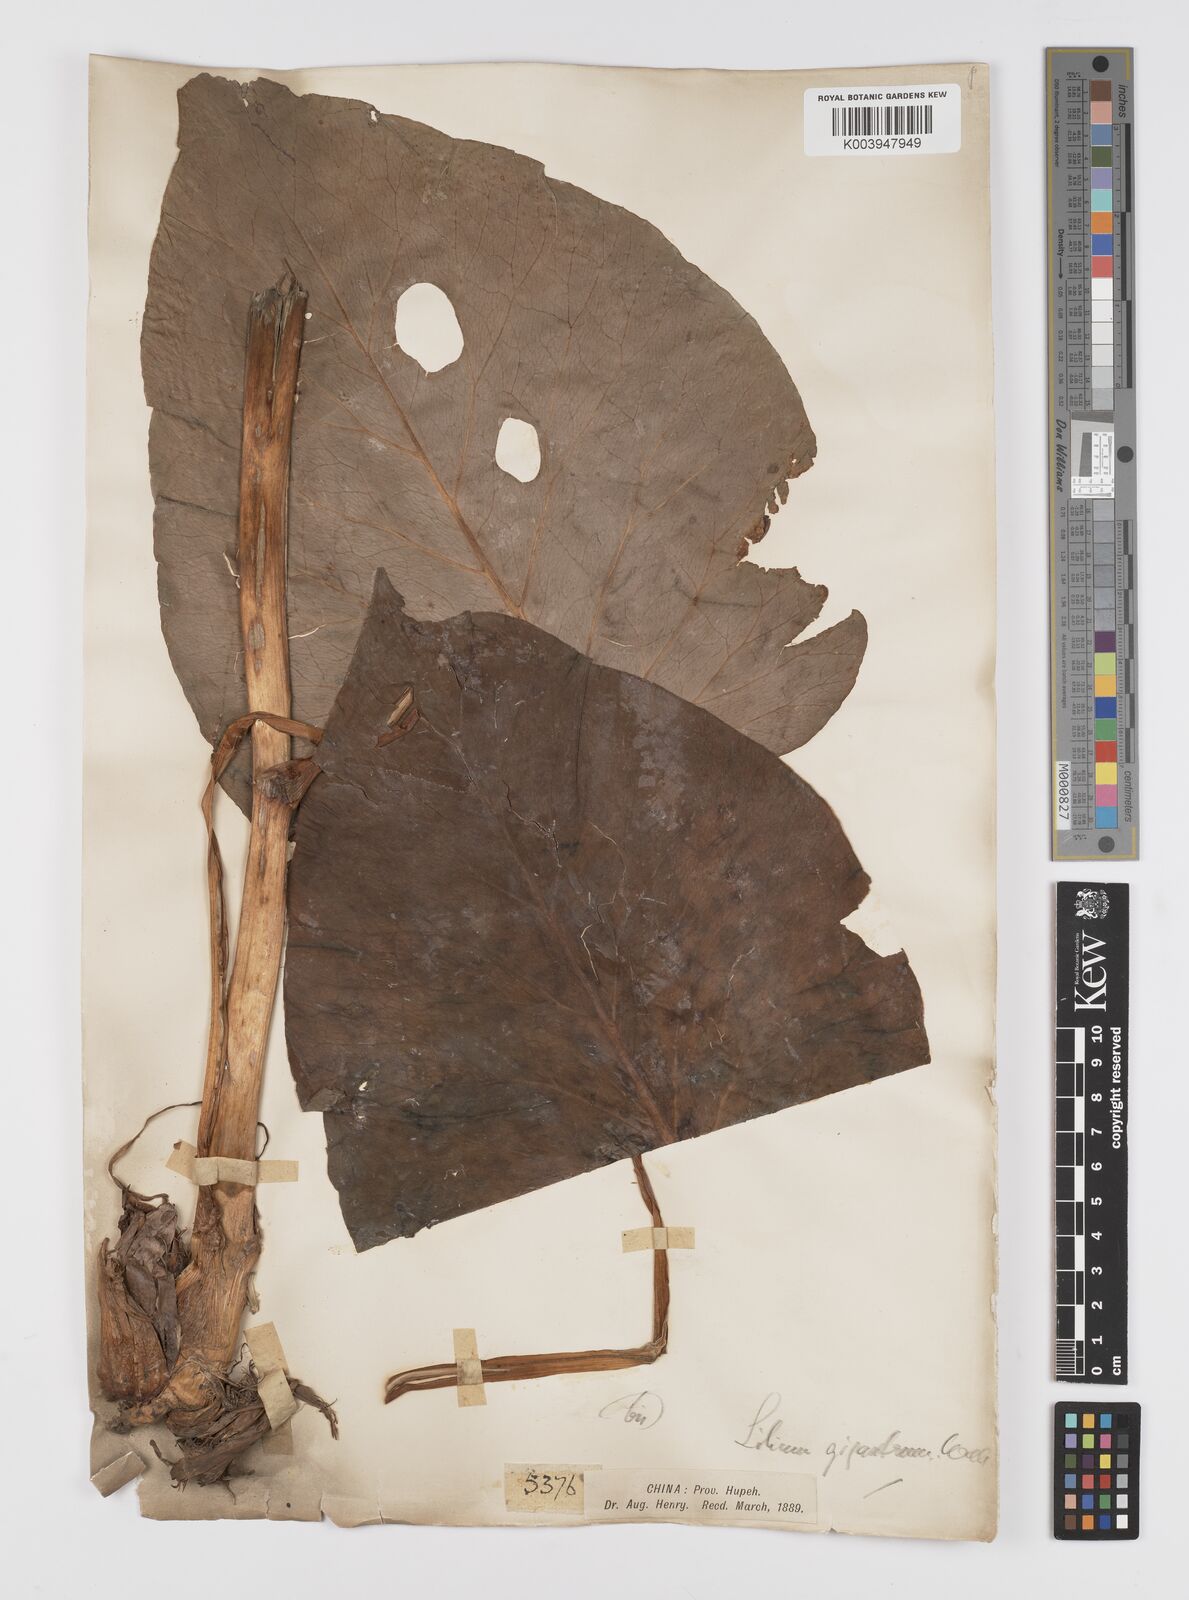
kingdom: Plantae
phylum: Tracheophyta
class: Liliopsida
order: Liliales
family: Liliaceae
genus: Cardiocrinum
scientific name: Cardiocrinum giganteum
